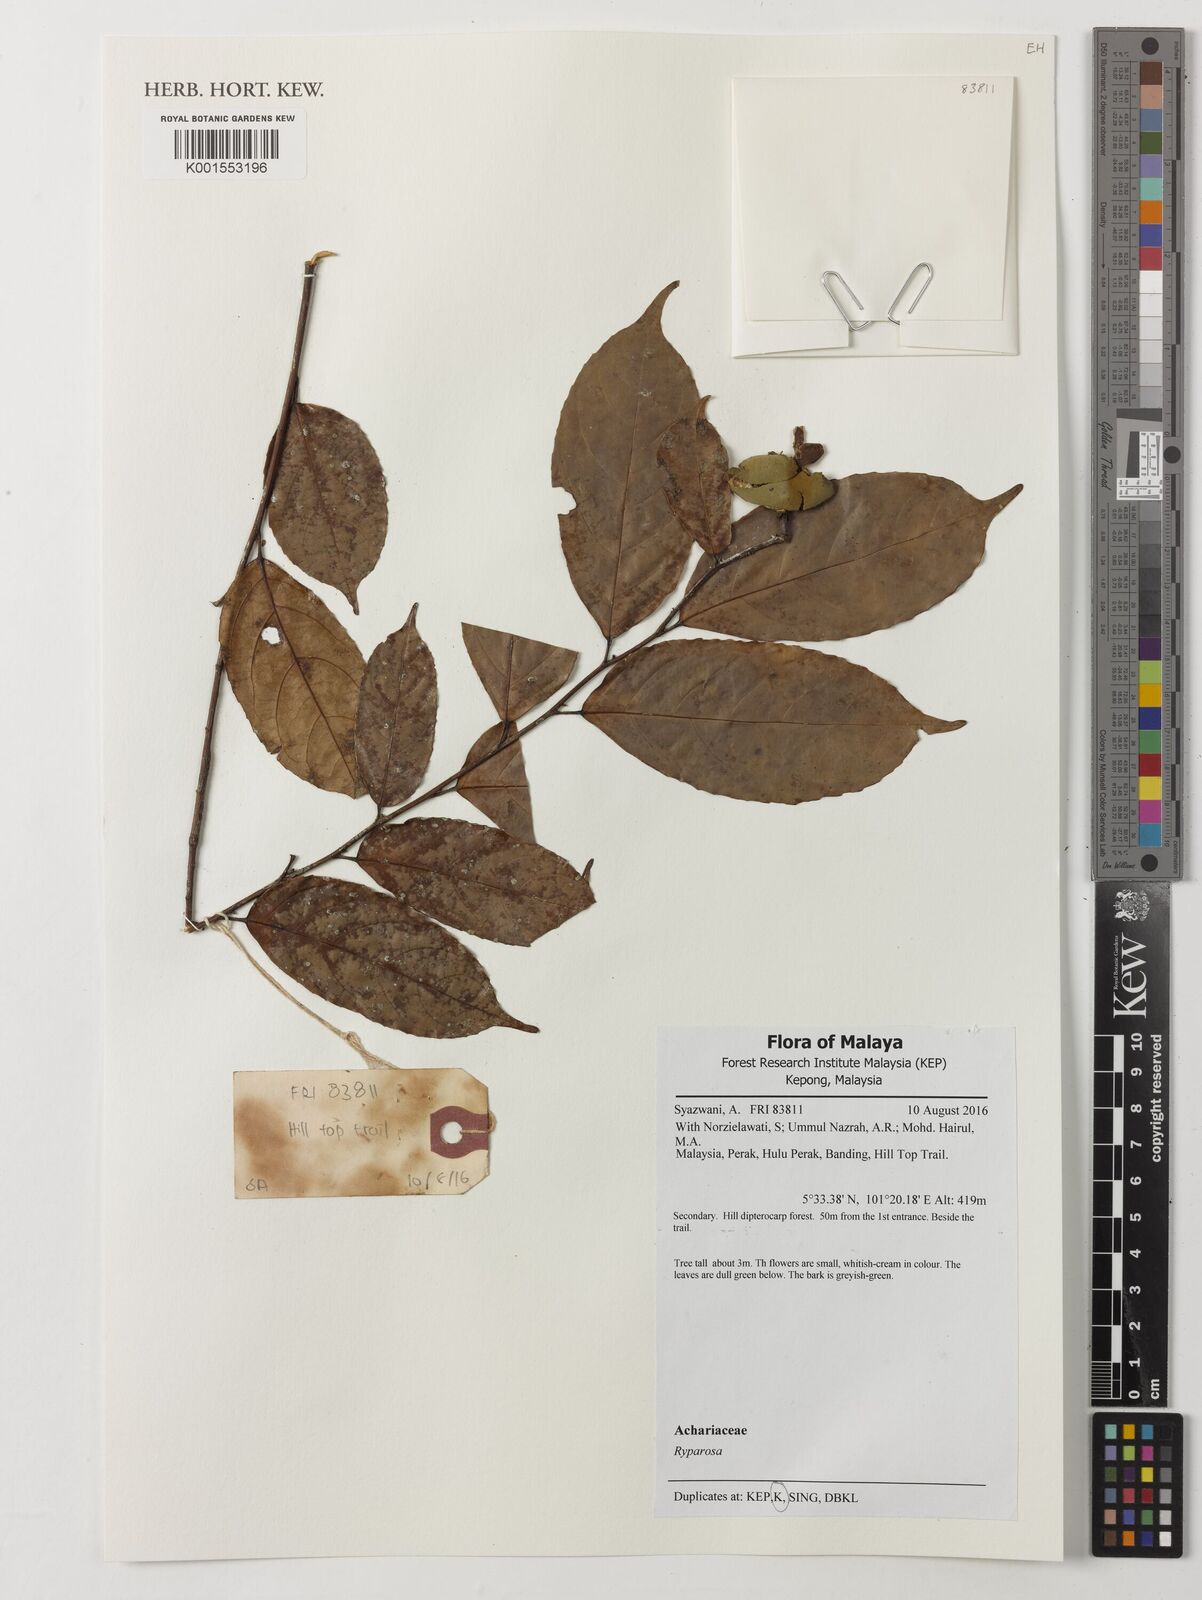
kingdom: Plantae
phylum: Tracheophyta
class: Magnoliopsida
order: Malpighiales
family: Achariaceae
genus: Ryparosa
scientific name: Ryparosa
